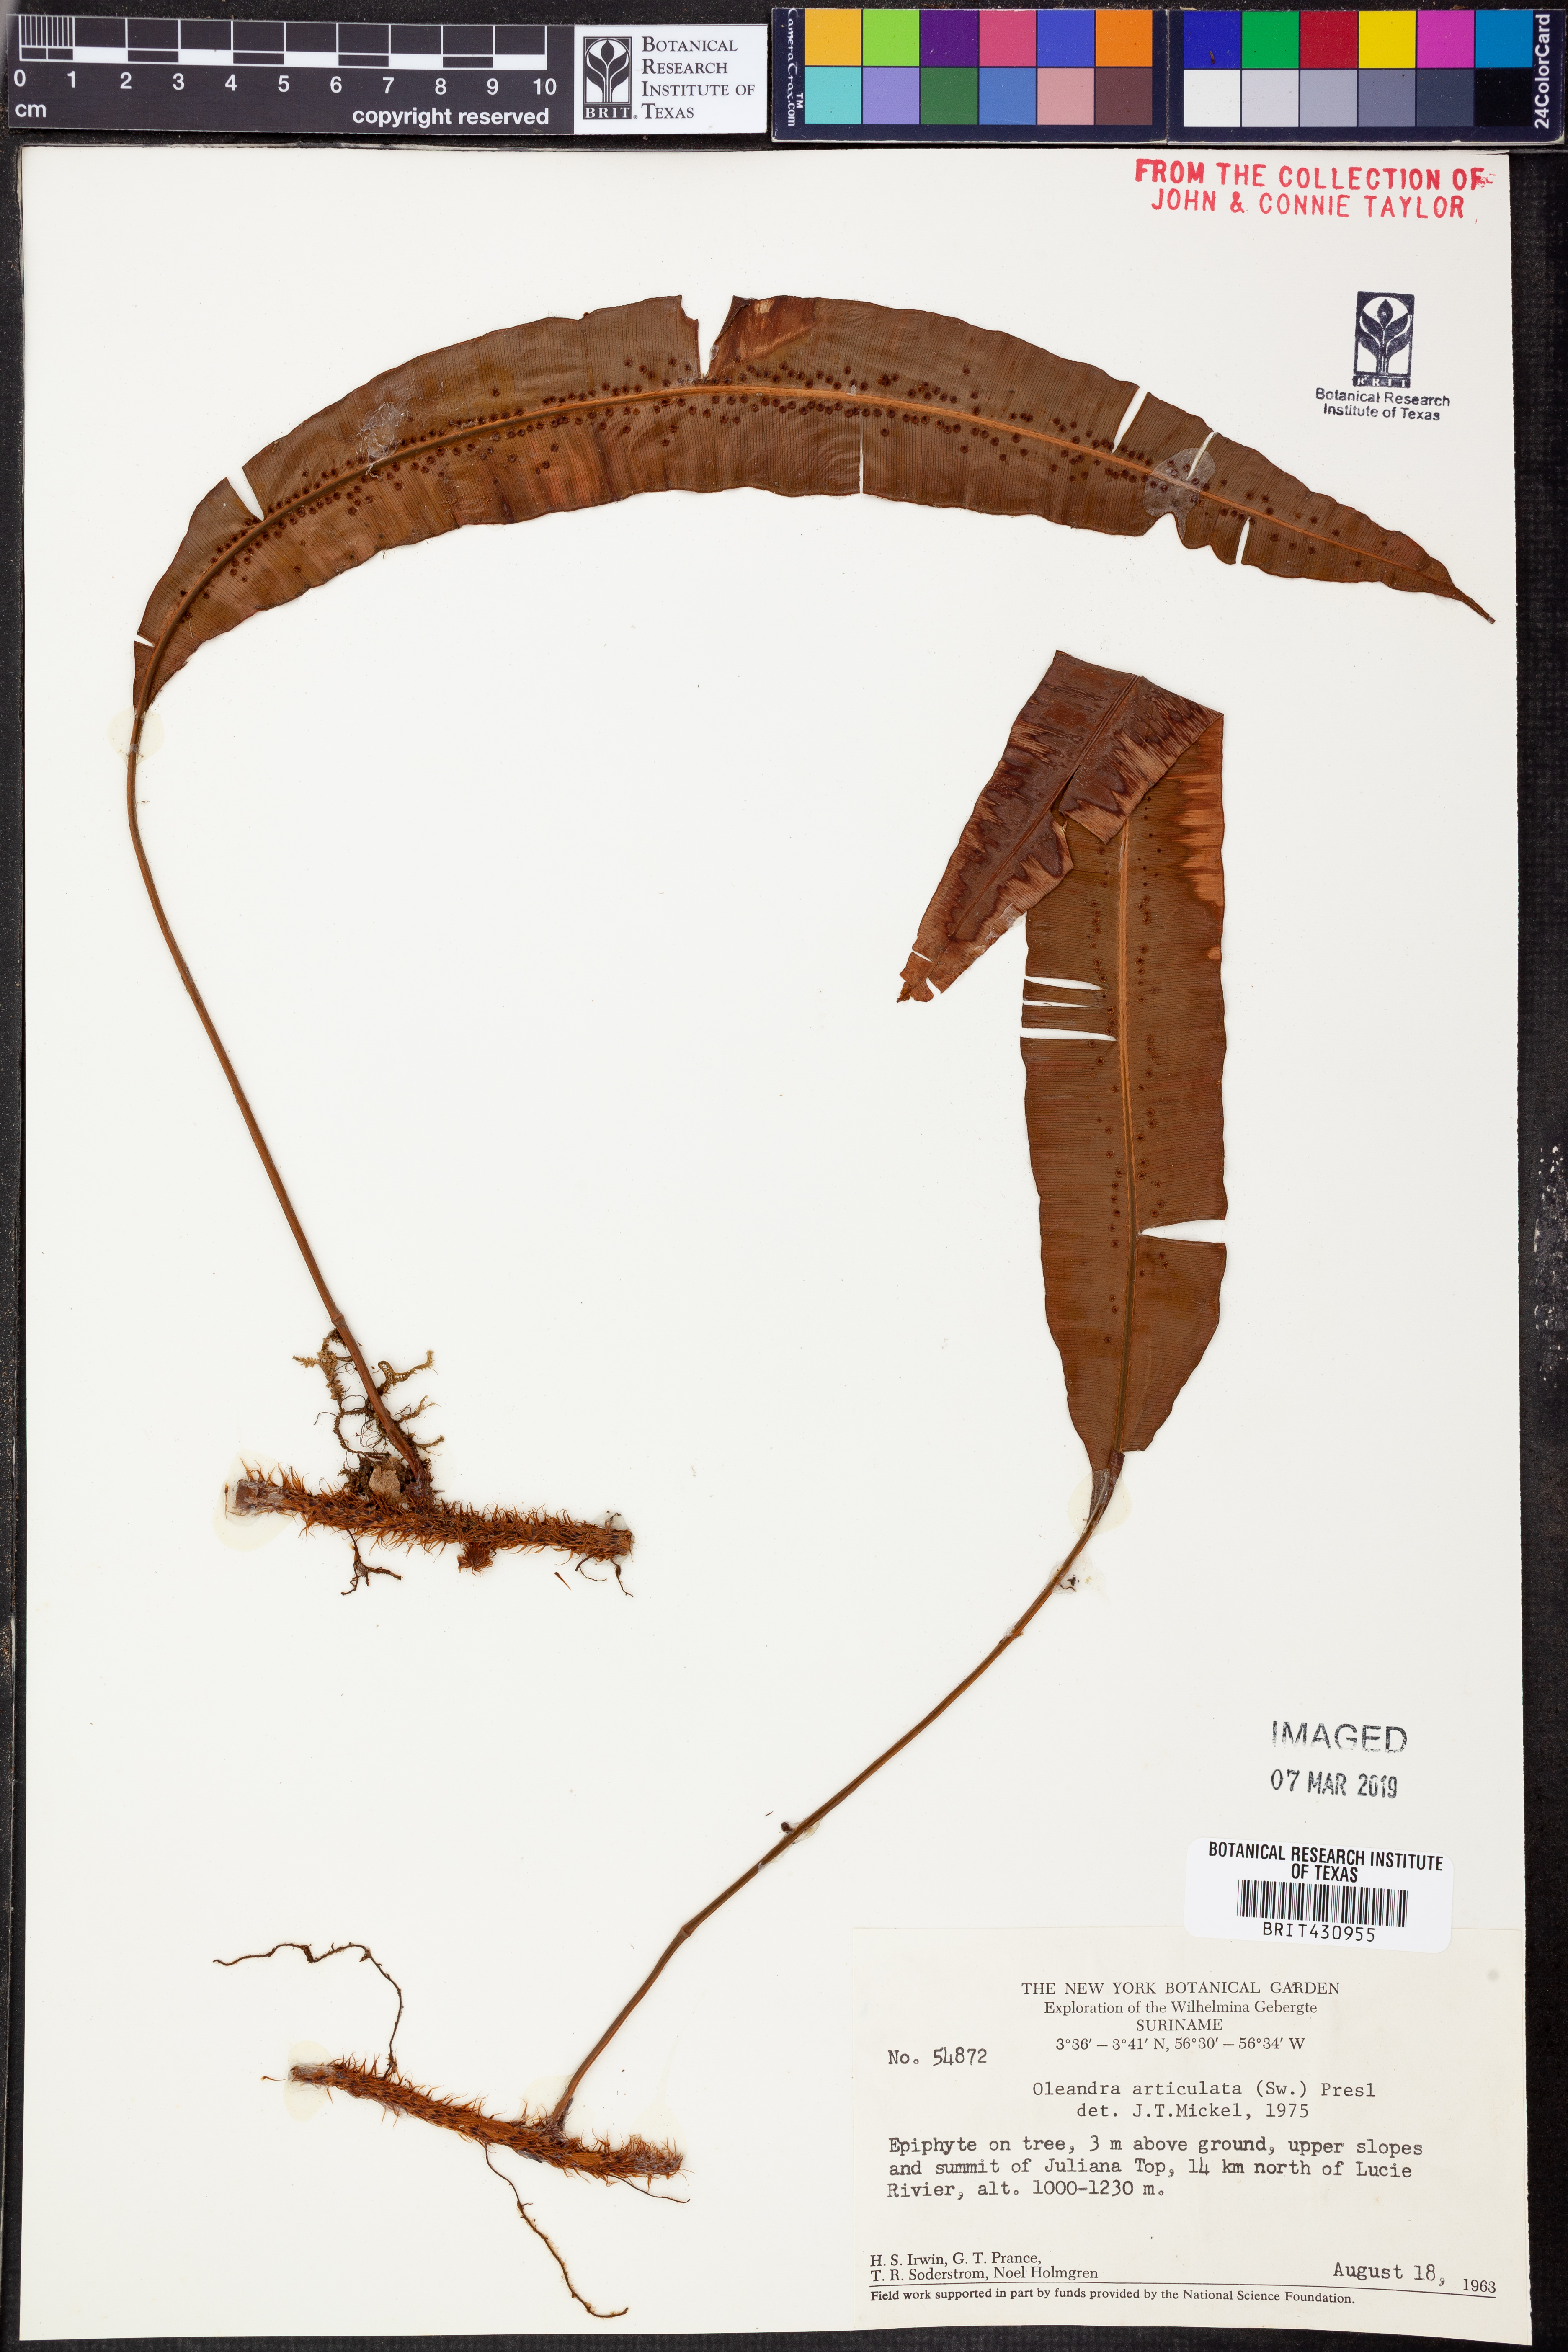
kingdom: Plantae
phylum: Tracheophyta
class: Polypodiopsida
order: Polypodiales
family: Oleandraceae
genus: Oleandra
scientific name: Oleandra articulata
